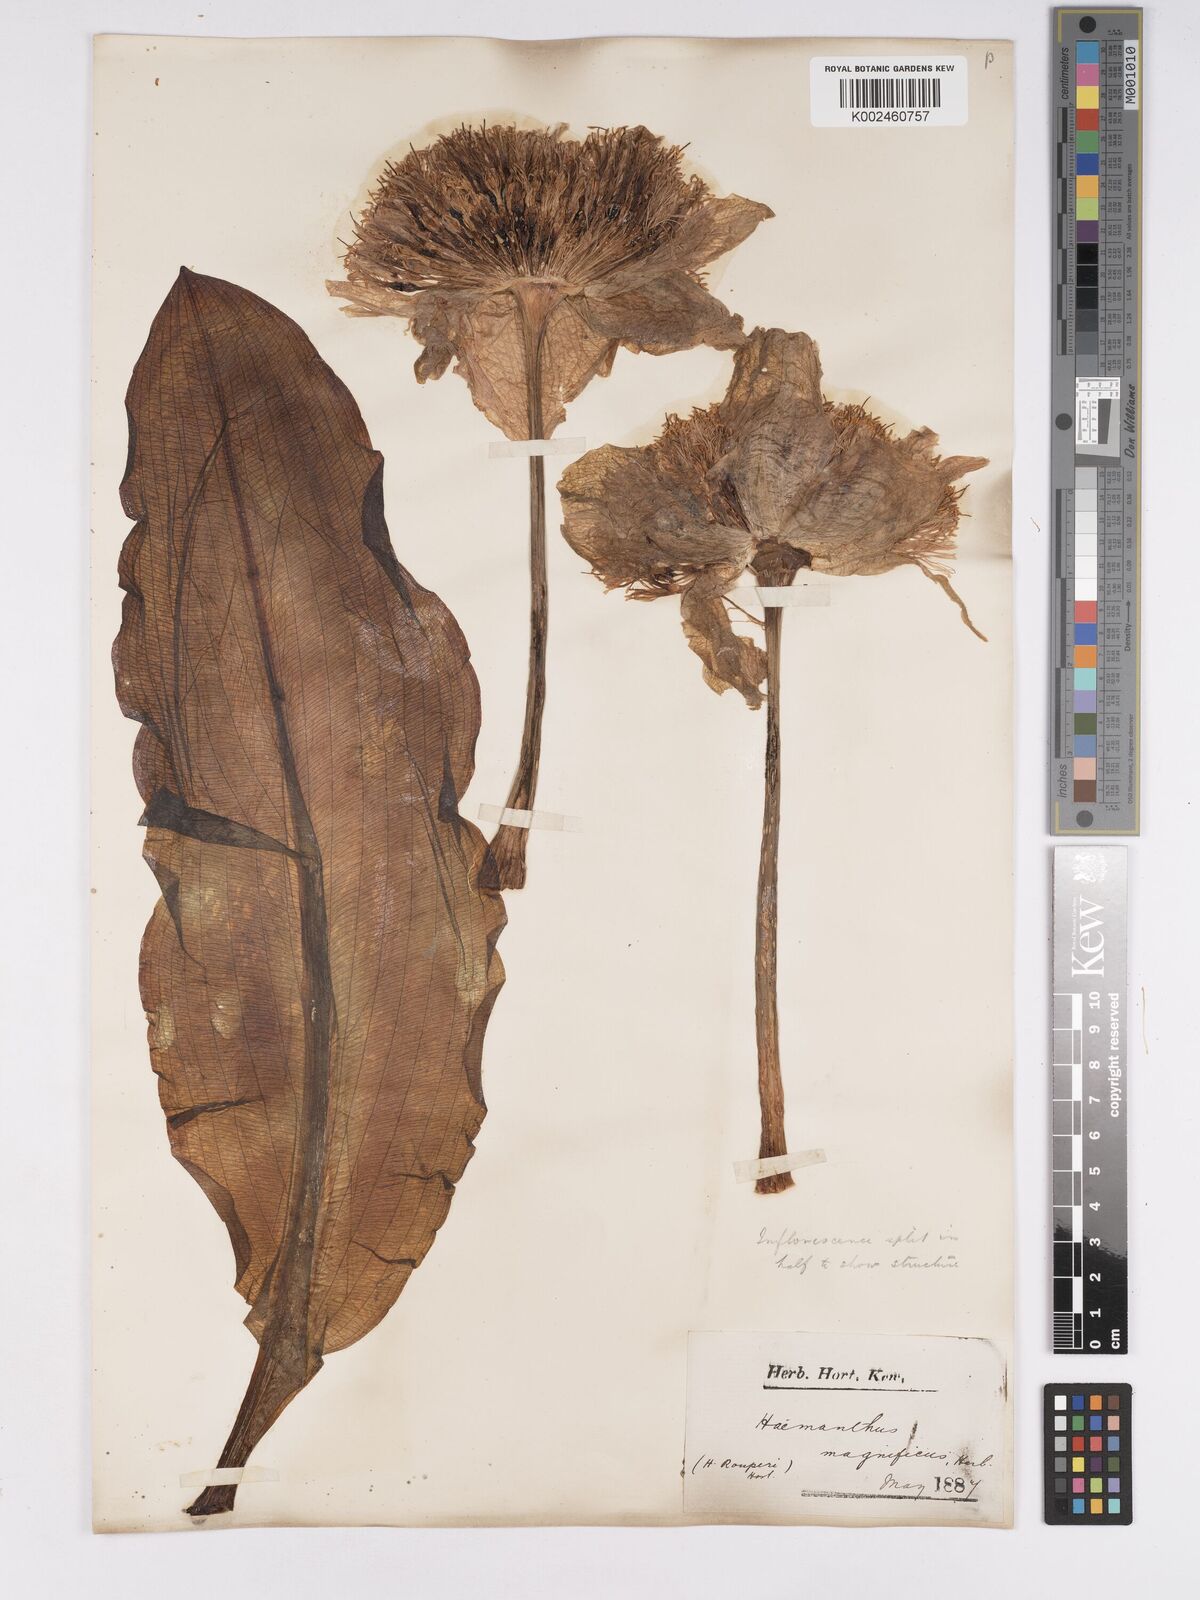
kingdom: Plantae
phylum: Tracheophyta
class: Liliopsida
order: Asparagales
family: Amaryllidaceae
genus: Scadoxus
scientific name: Scadoxus puniceus
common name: Royal-paintbrush
